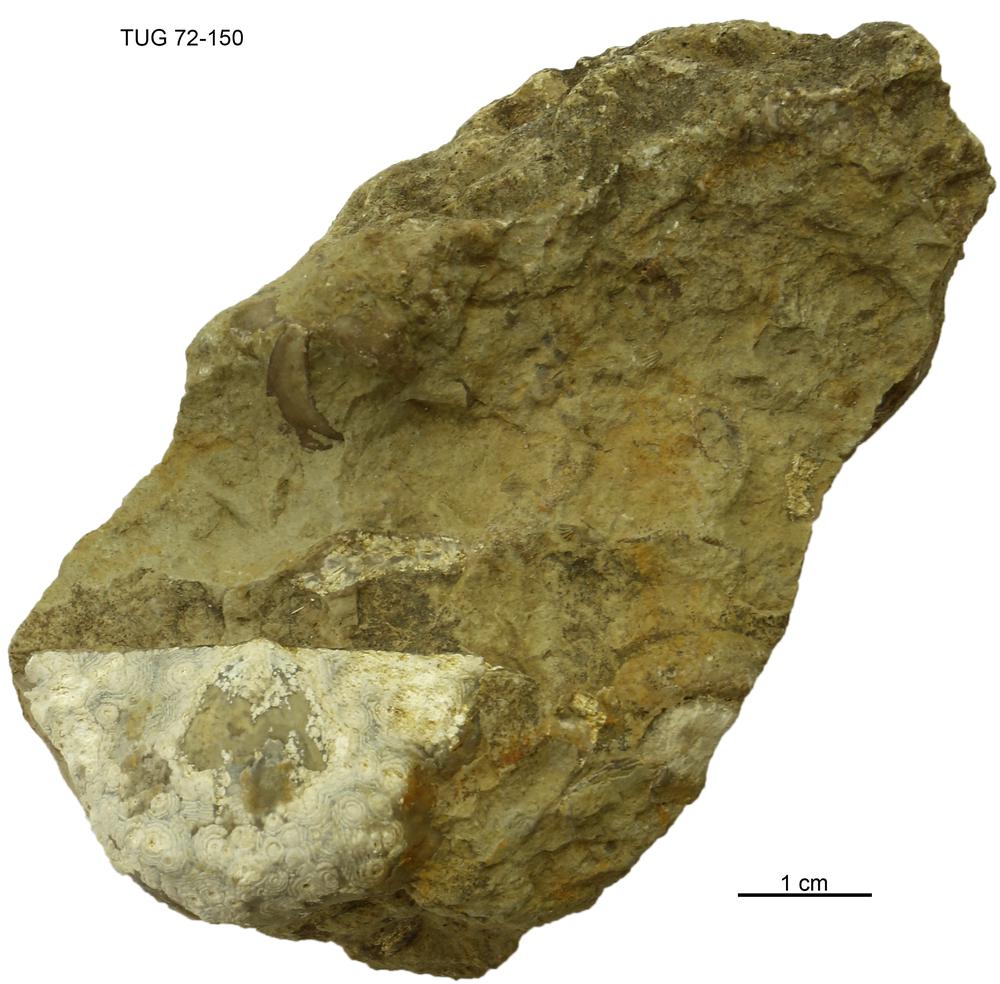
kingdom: Animalia
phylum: Brachiopoda
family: Strophomenidae
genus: Leptaena
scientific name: Leptaena
